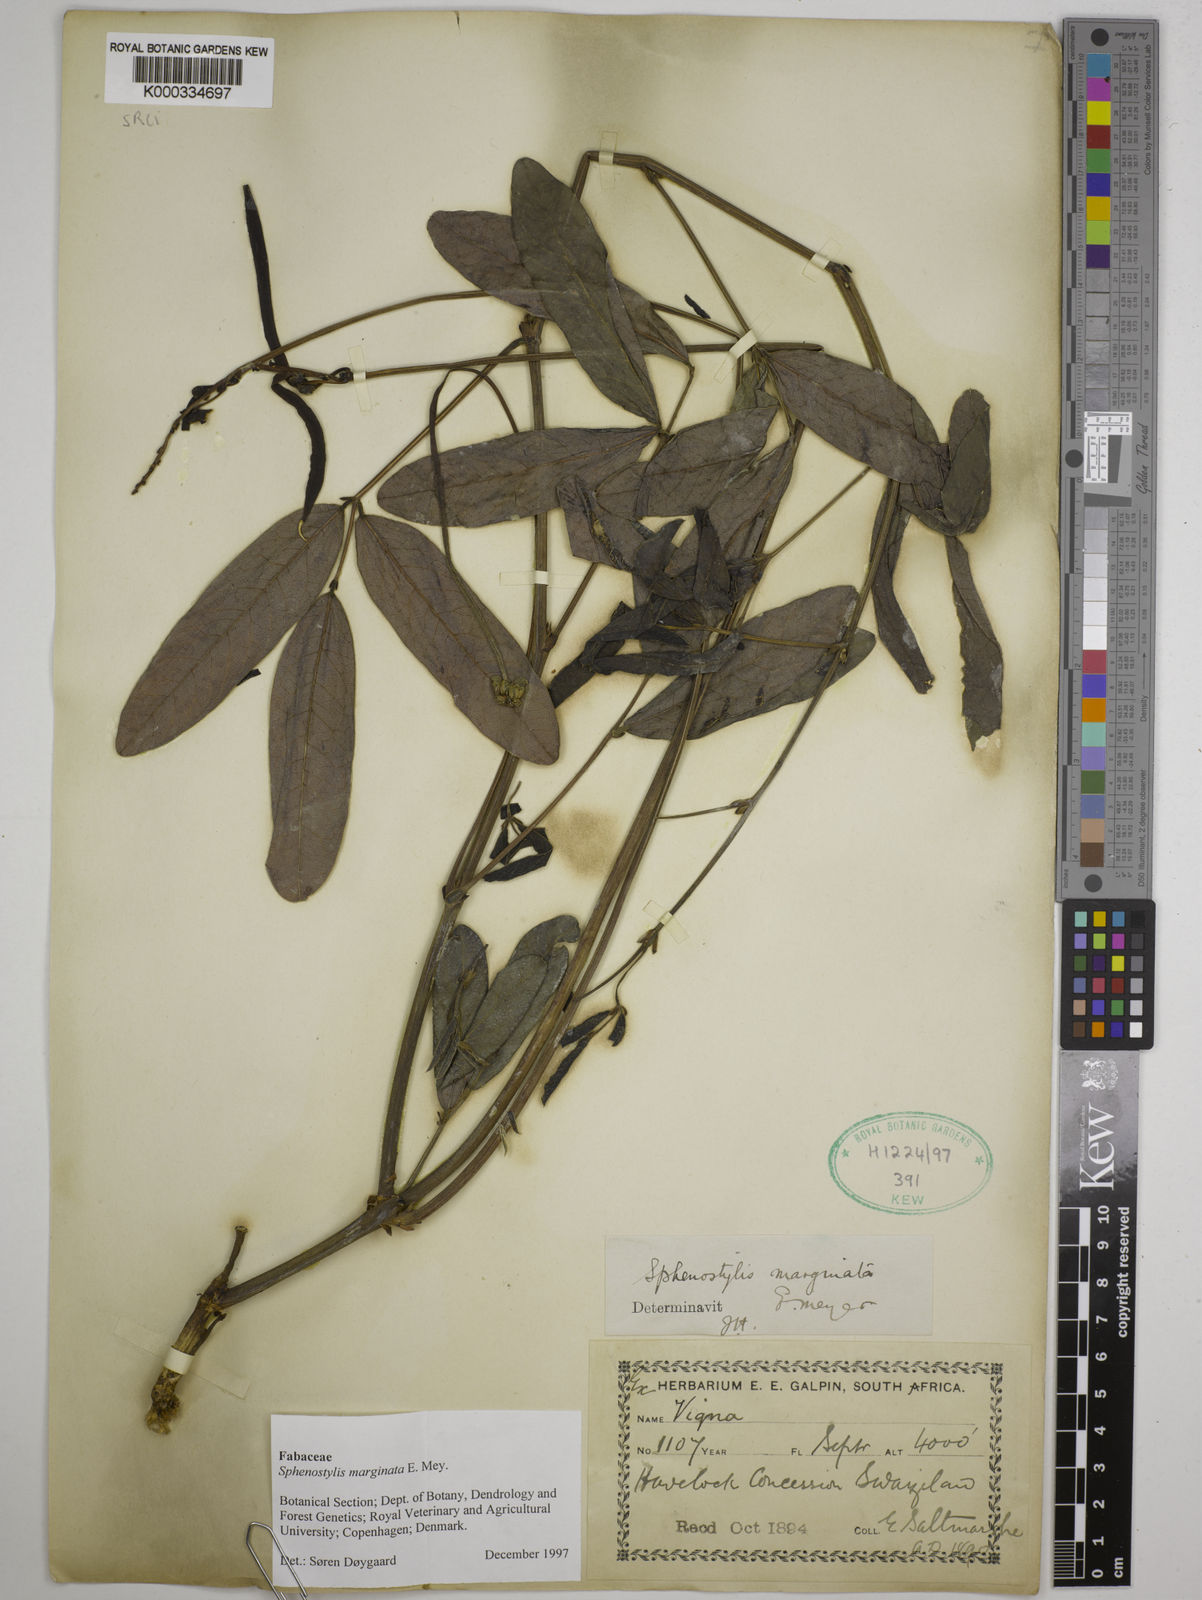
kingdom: Plantae
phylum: Tracheophyta
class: Magnoliopsida
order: Fabales
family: Fabaceae
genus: Sphenostylis
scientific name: Sphenostylis marginata
